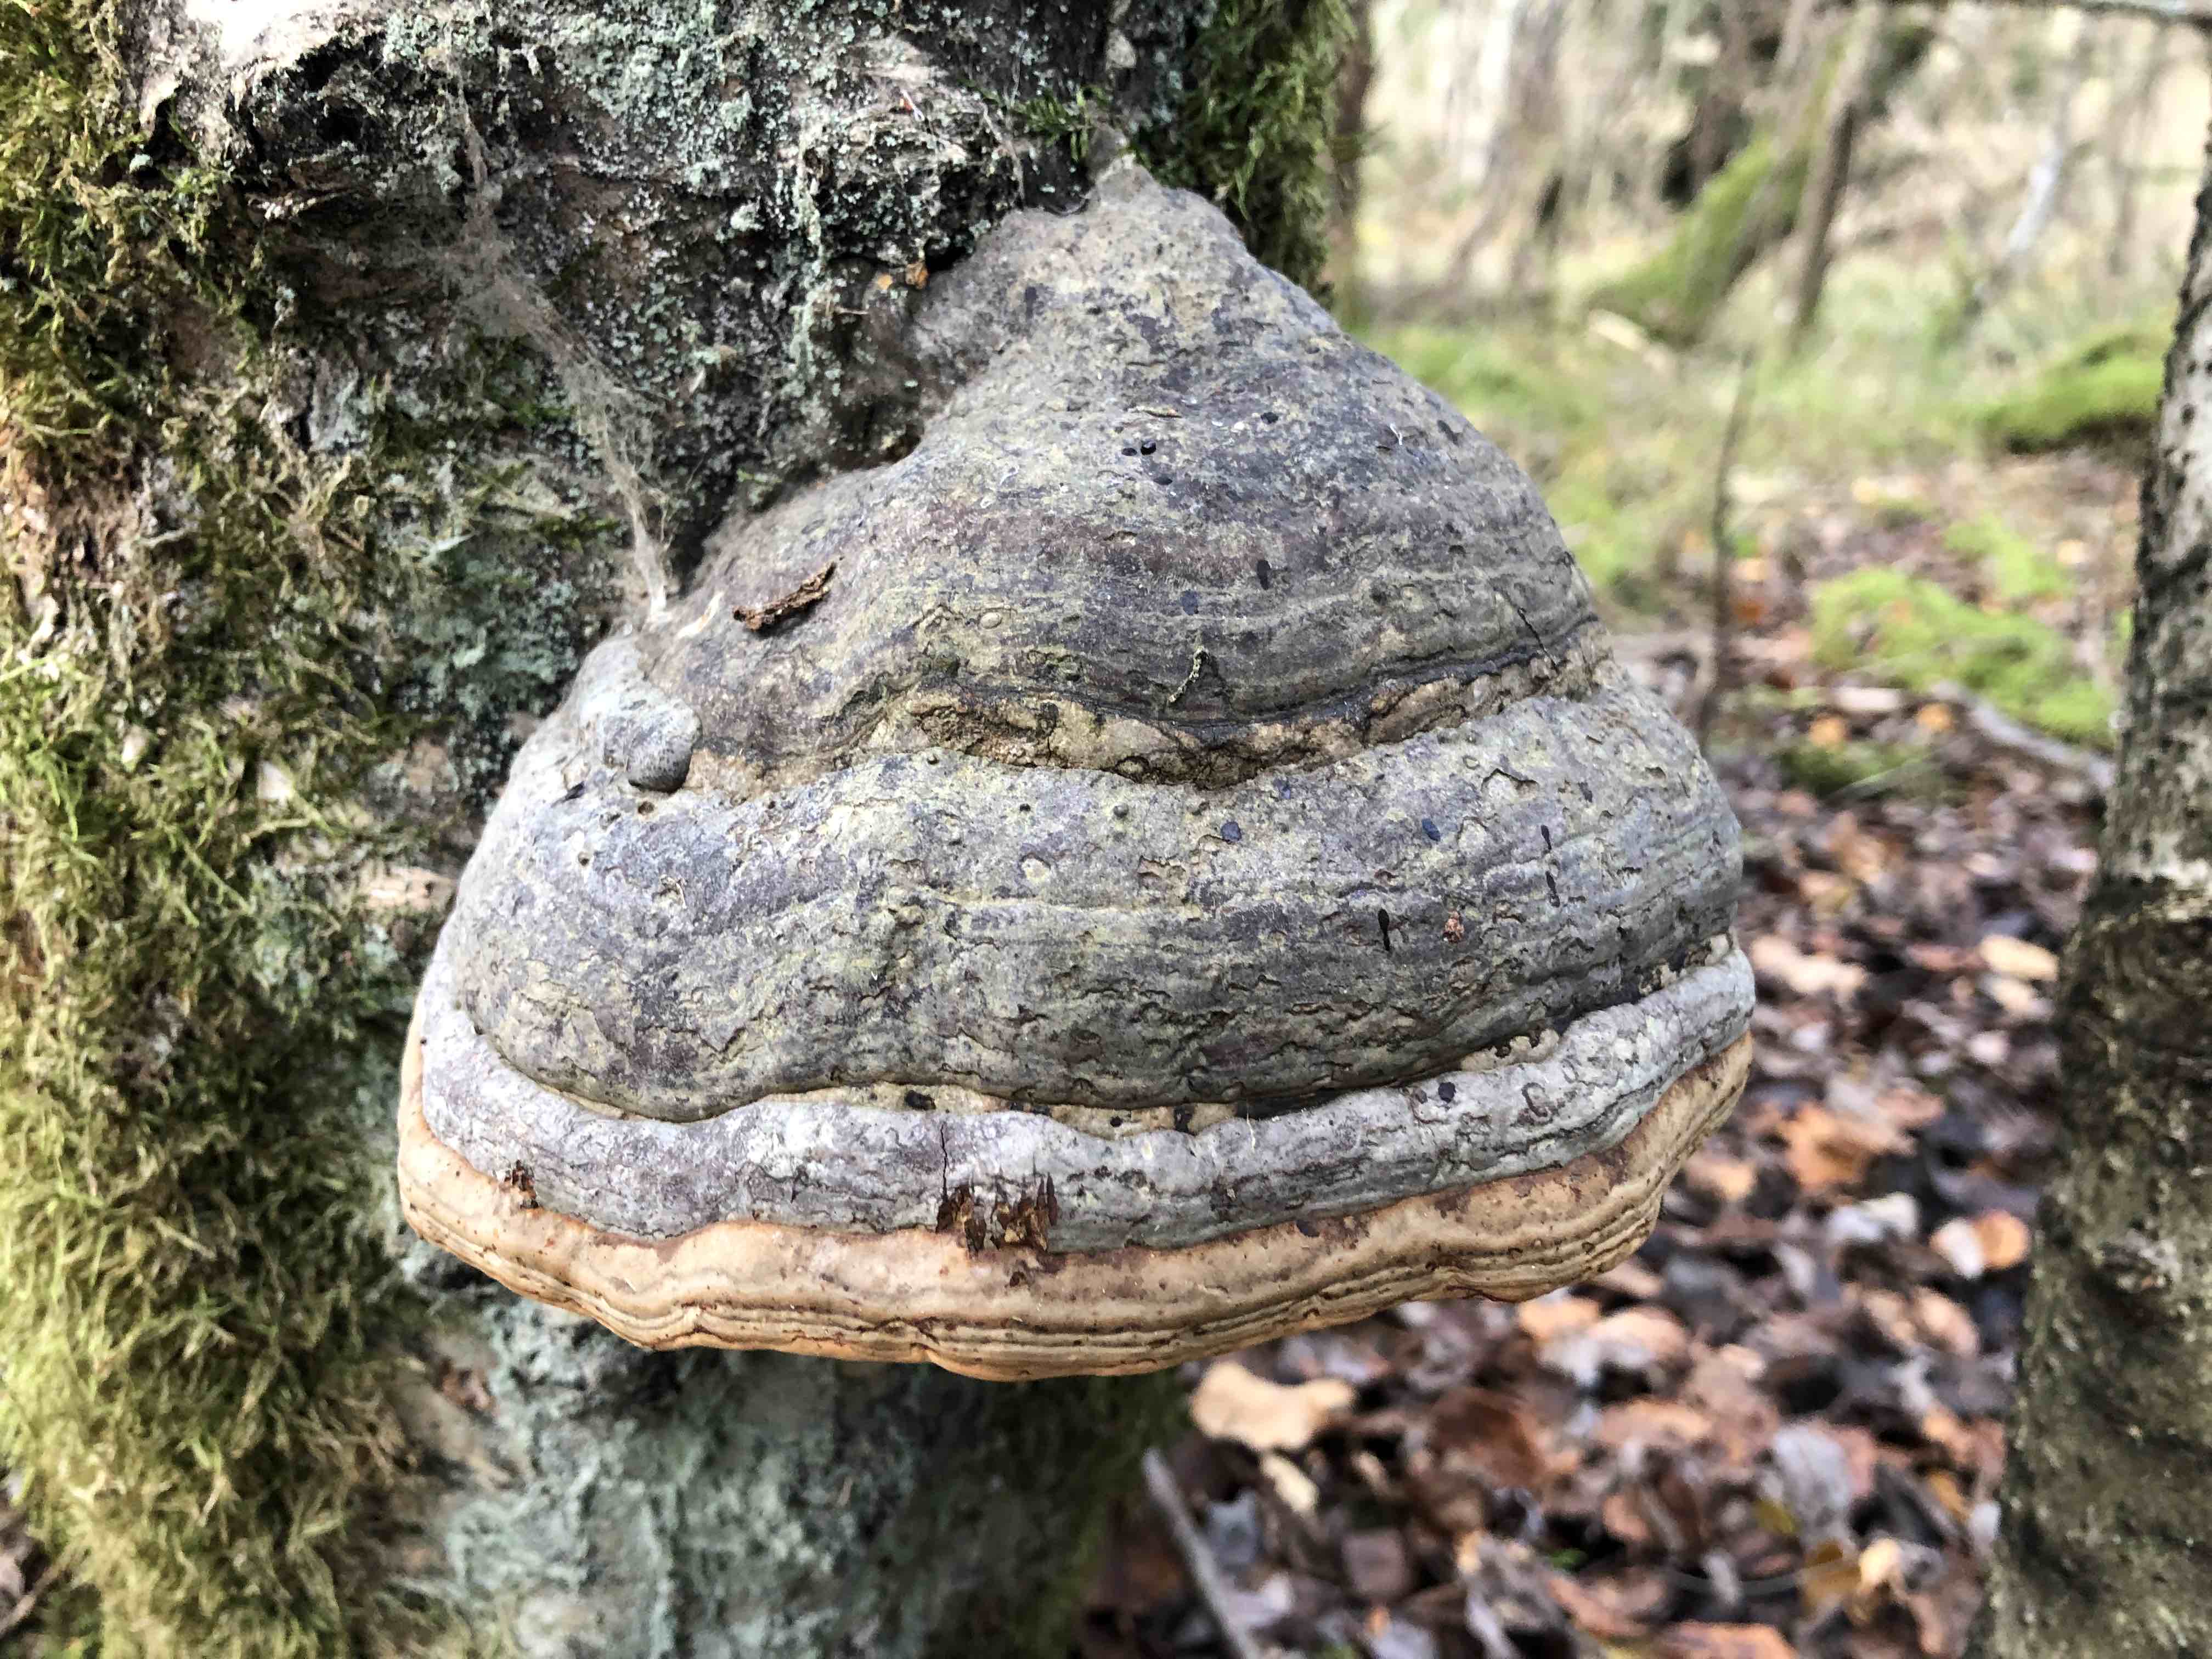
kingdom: Fungi
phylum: Basidiomycota
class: Agaricomycetes
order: Polyporales
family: Polyporaceae
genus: Fomes
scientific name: Fomes fomentarius
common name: tøndersvamp
